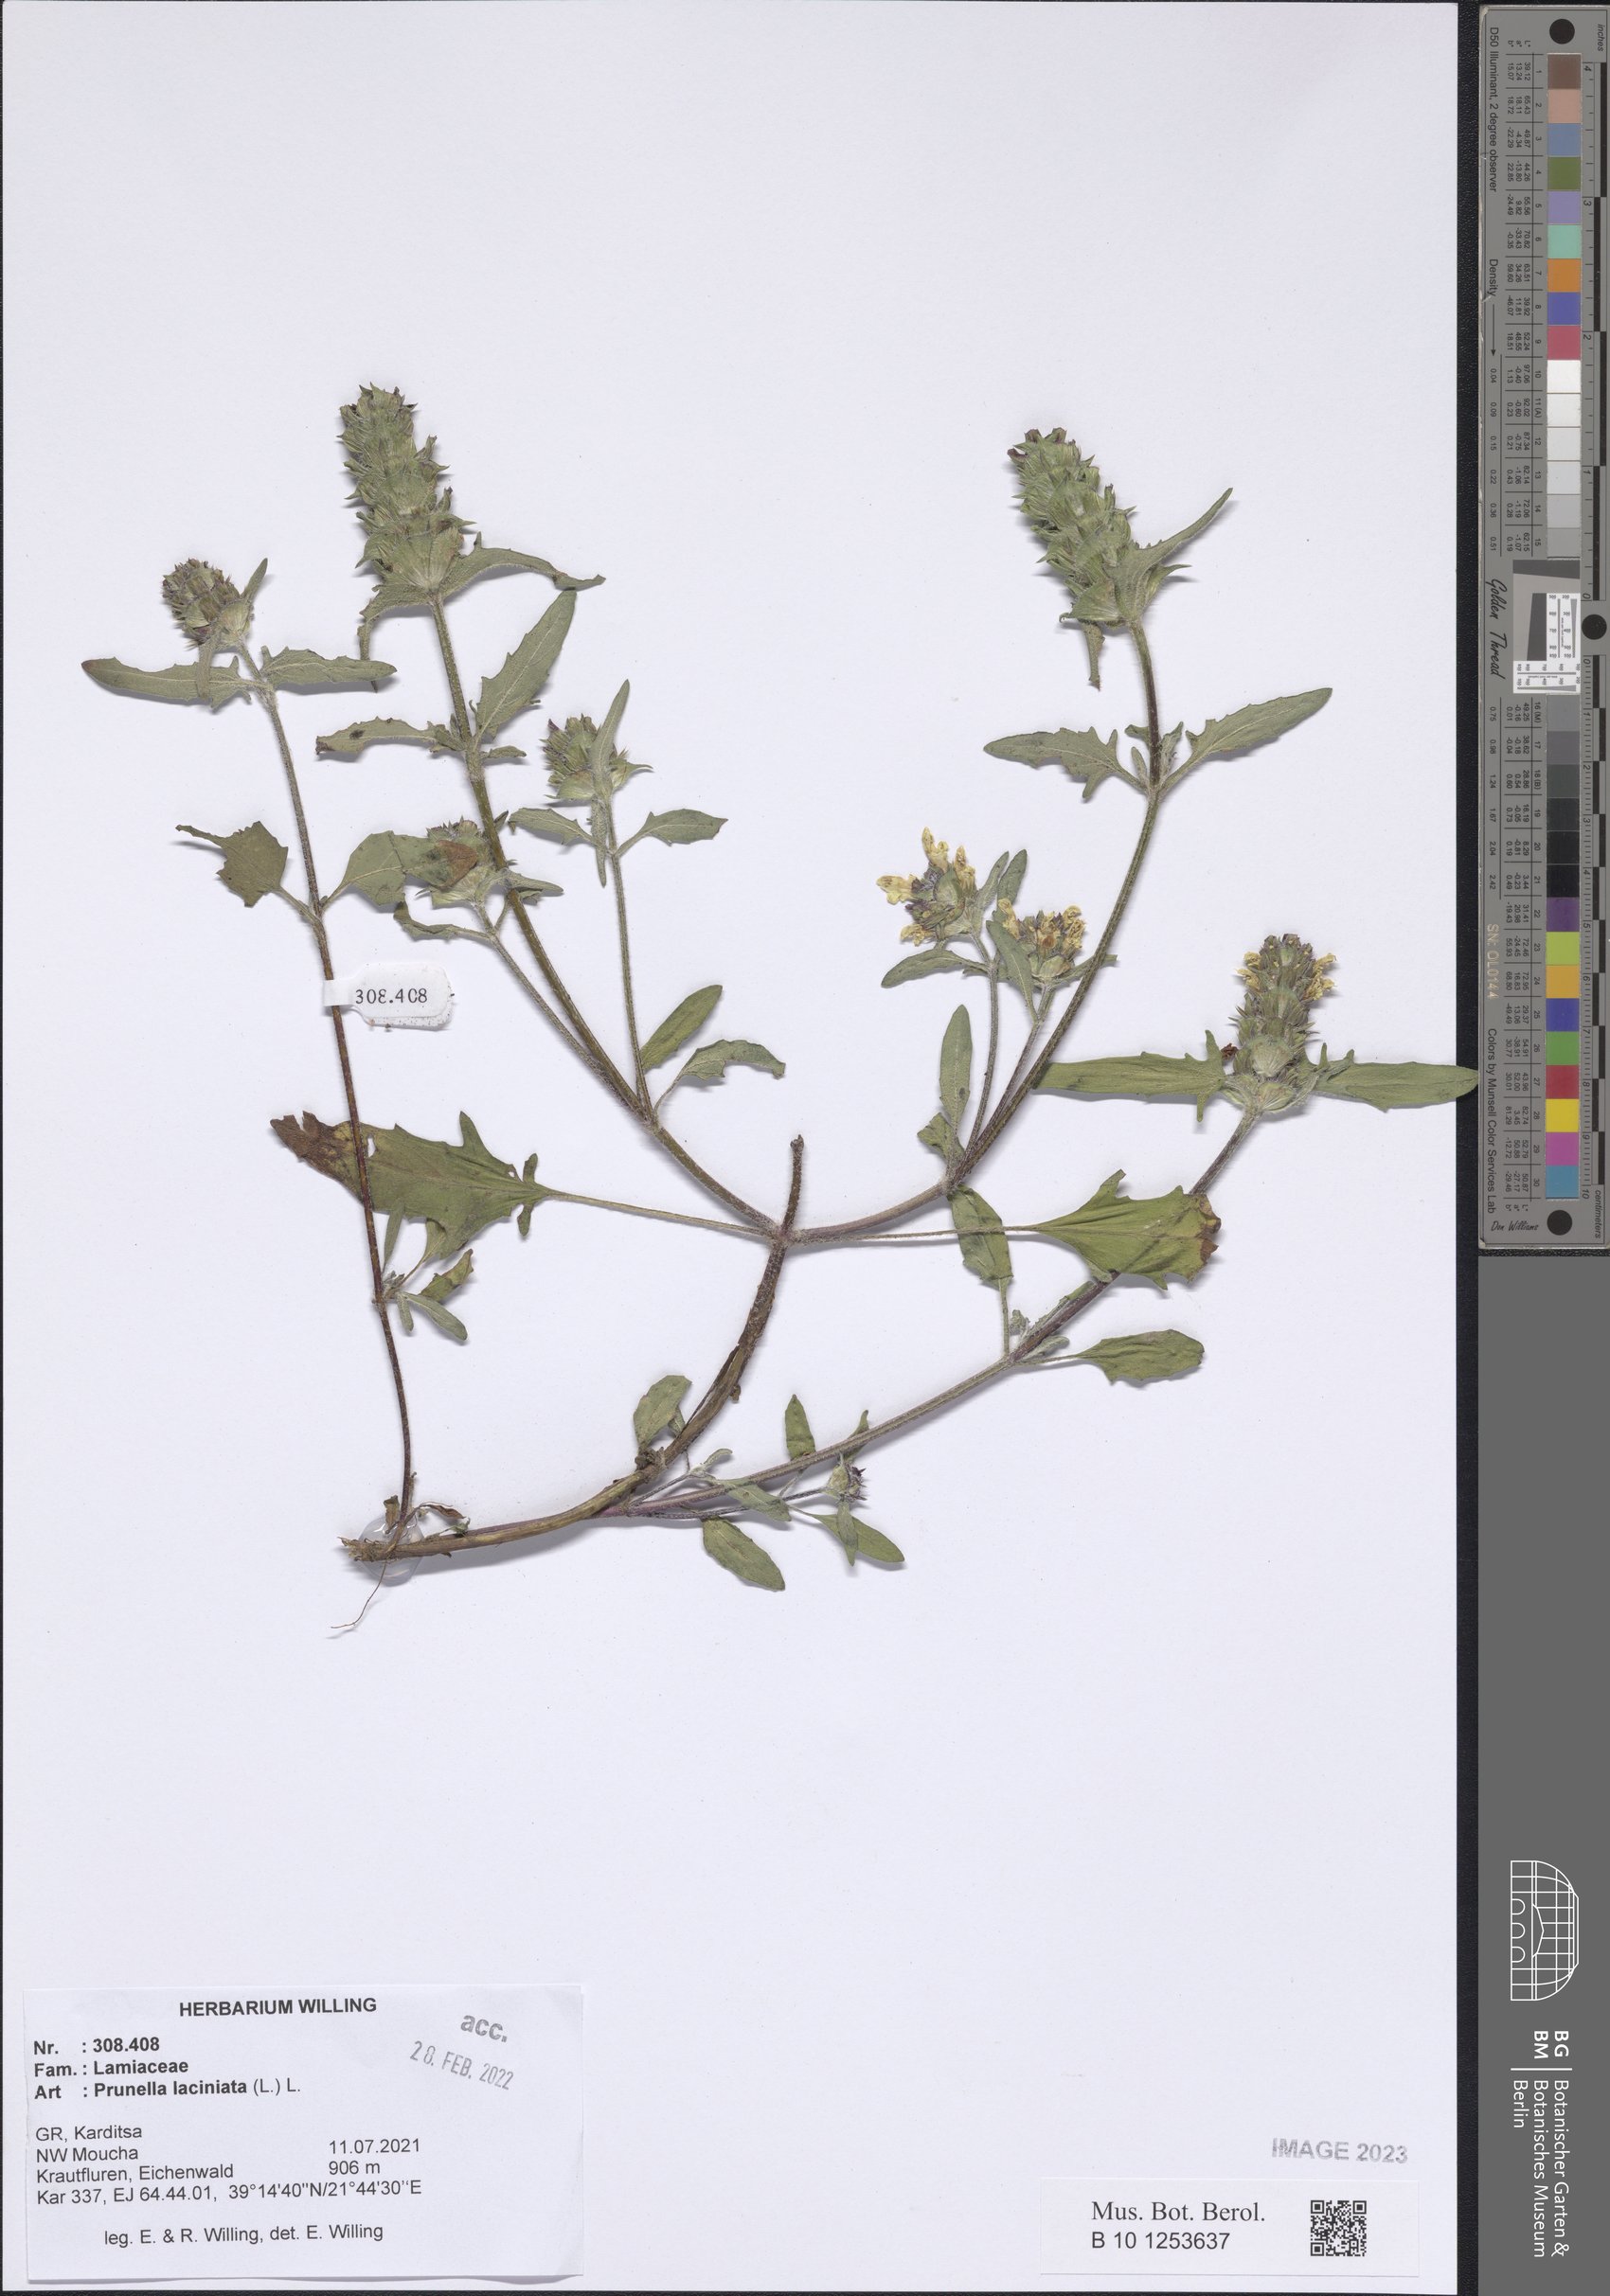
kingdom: Plantae
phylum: Tracheophyta
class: Magnoliopsida
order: Lamiales
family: Lamiaceae
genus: Prunella
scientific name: Prunella laciniata
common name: Cut-leaved selfheal
